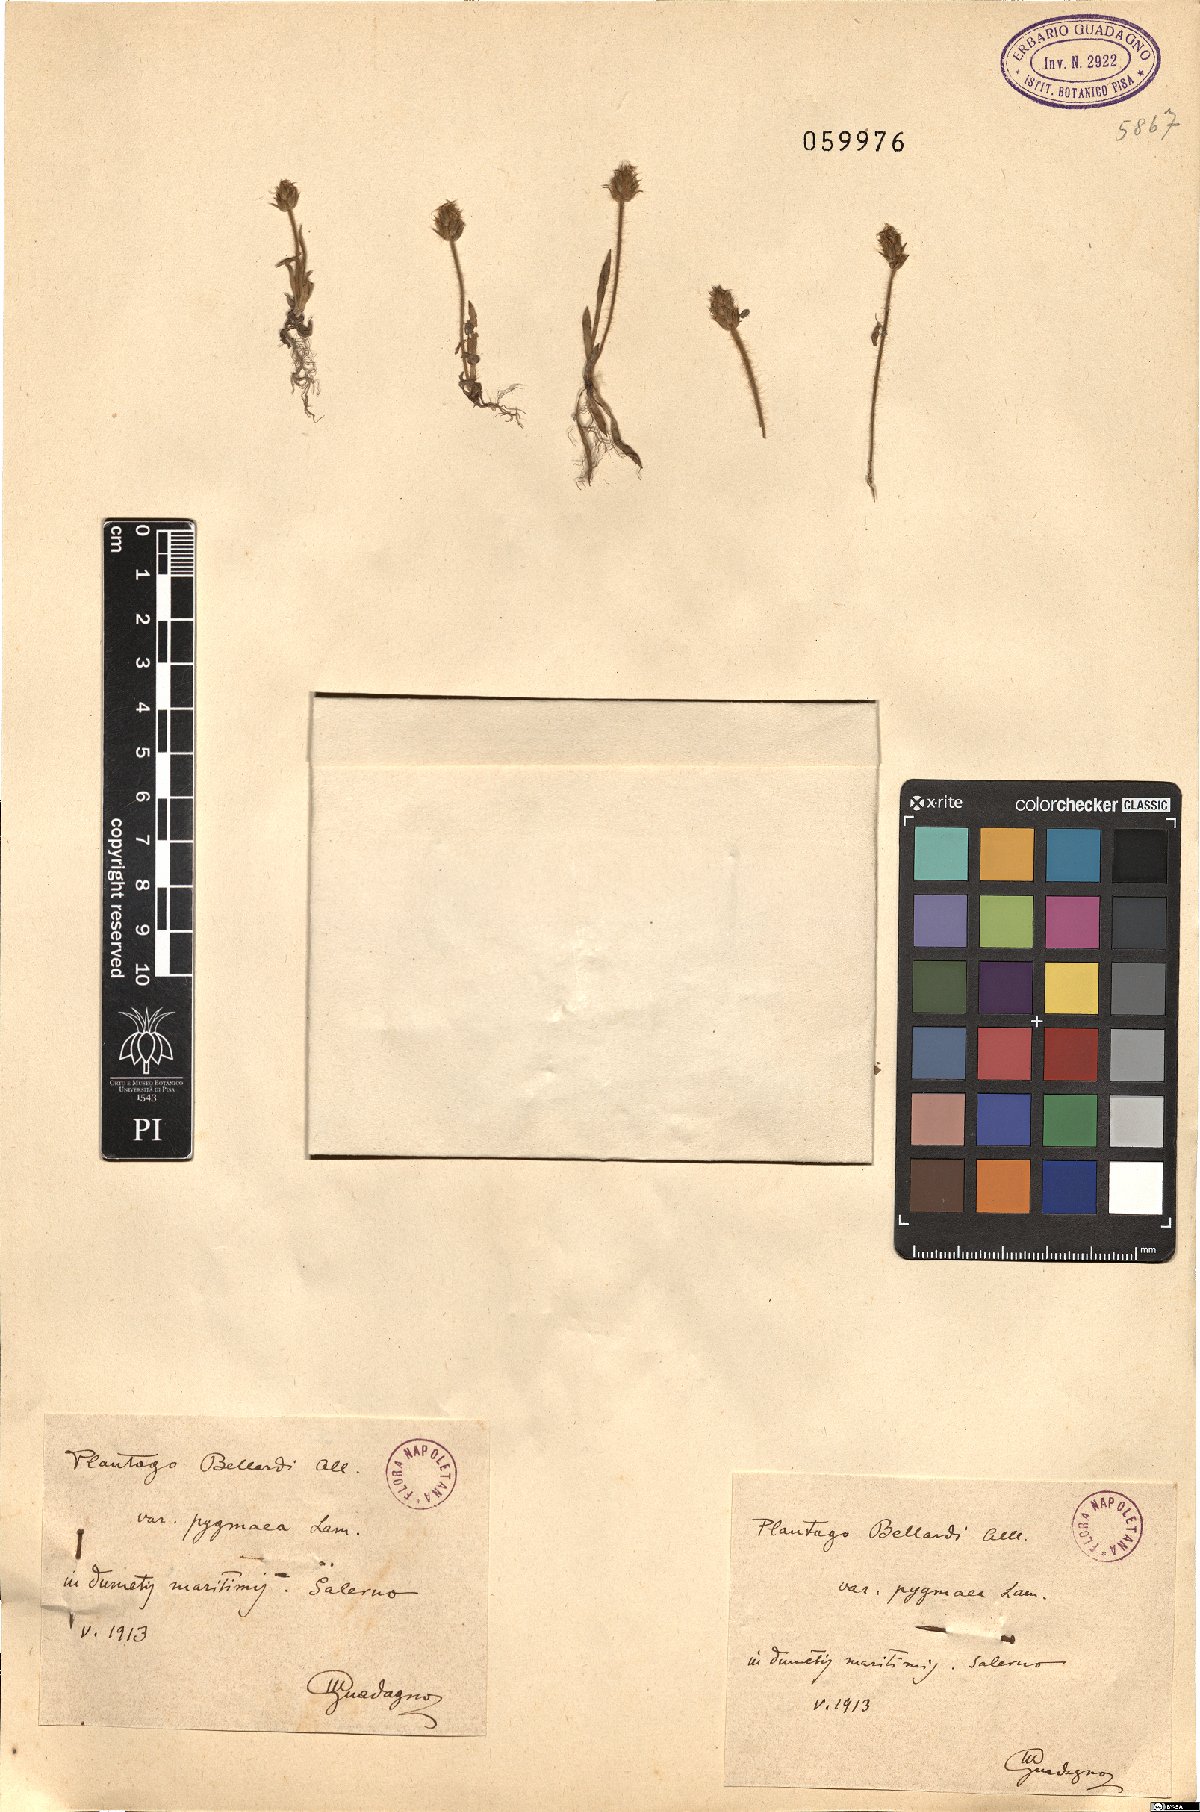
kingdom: Plantae
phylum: Tracheophyta
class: Magnoliopsida
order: Lamiales
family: Plantaginaceae
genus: Plantago
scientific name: Plantago bellardii
